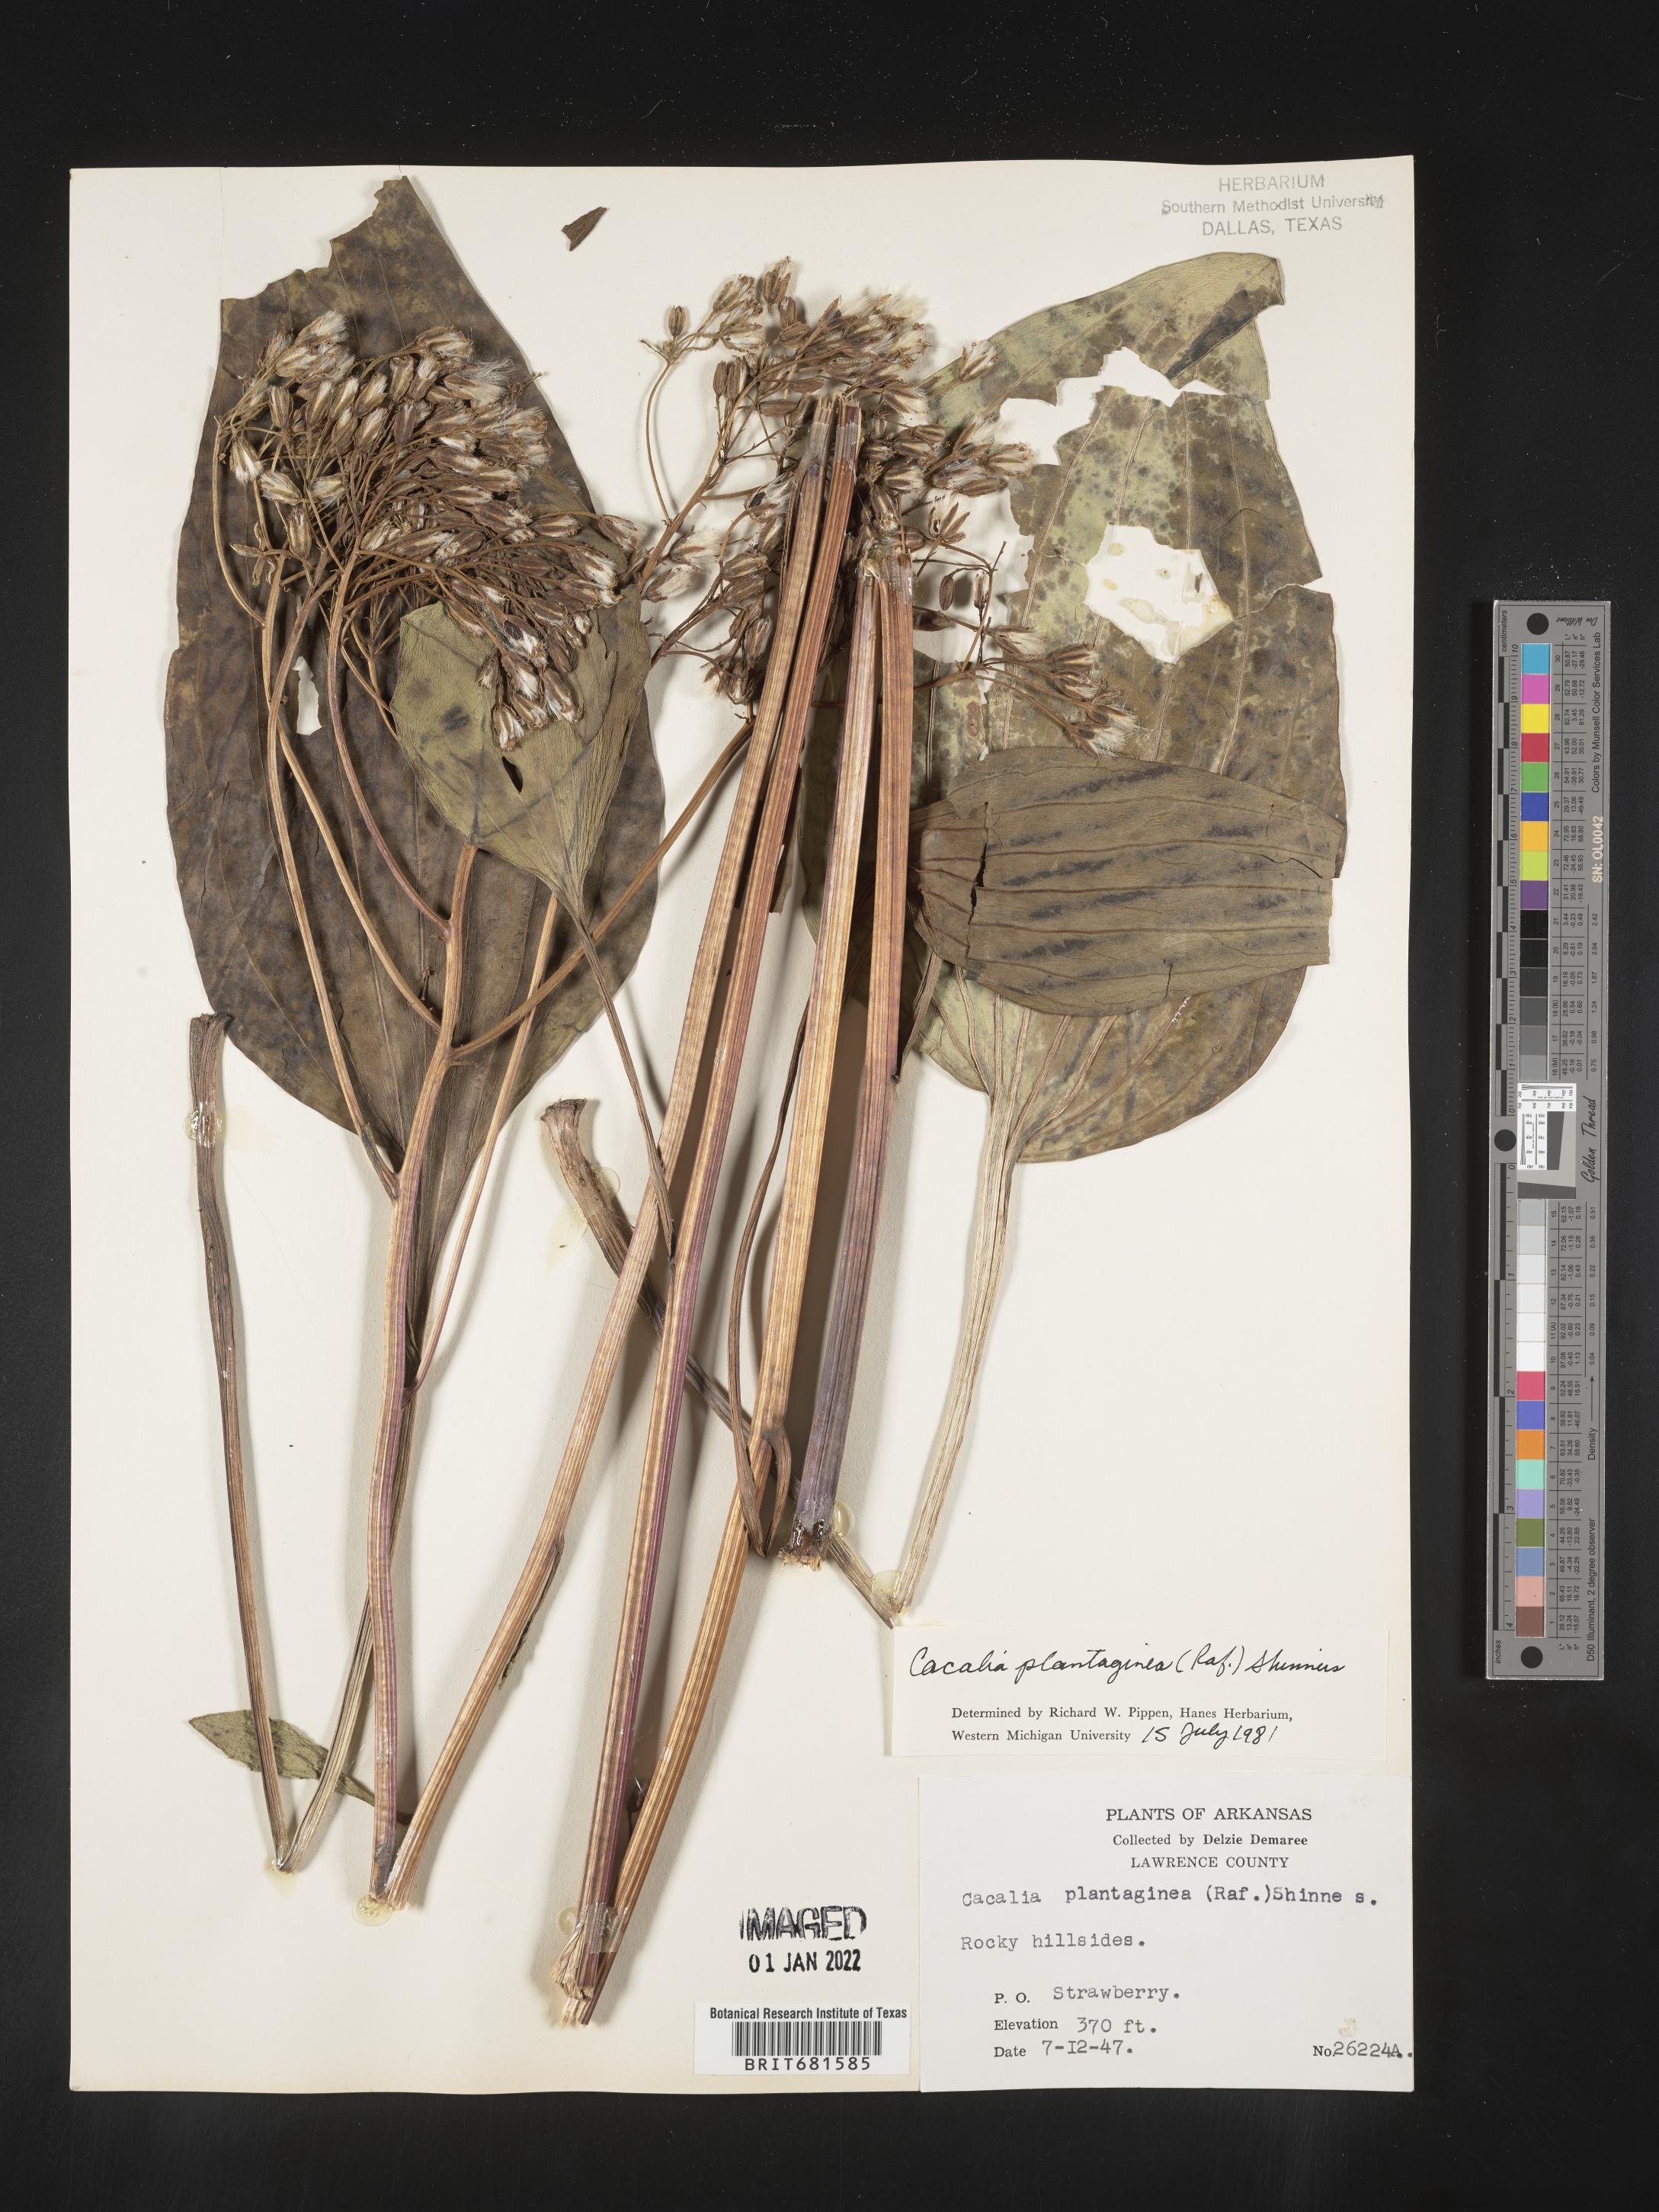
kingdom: Plantae
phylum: Tracheophyta
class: Magnoliopsida
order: Asterales
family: Asteraceae
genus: Arnoglossum
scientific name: Arnoglossum plantagineum
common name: Groove-stemmed indian-plantain
